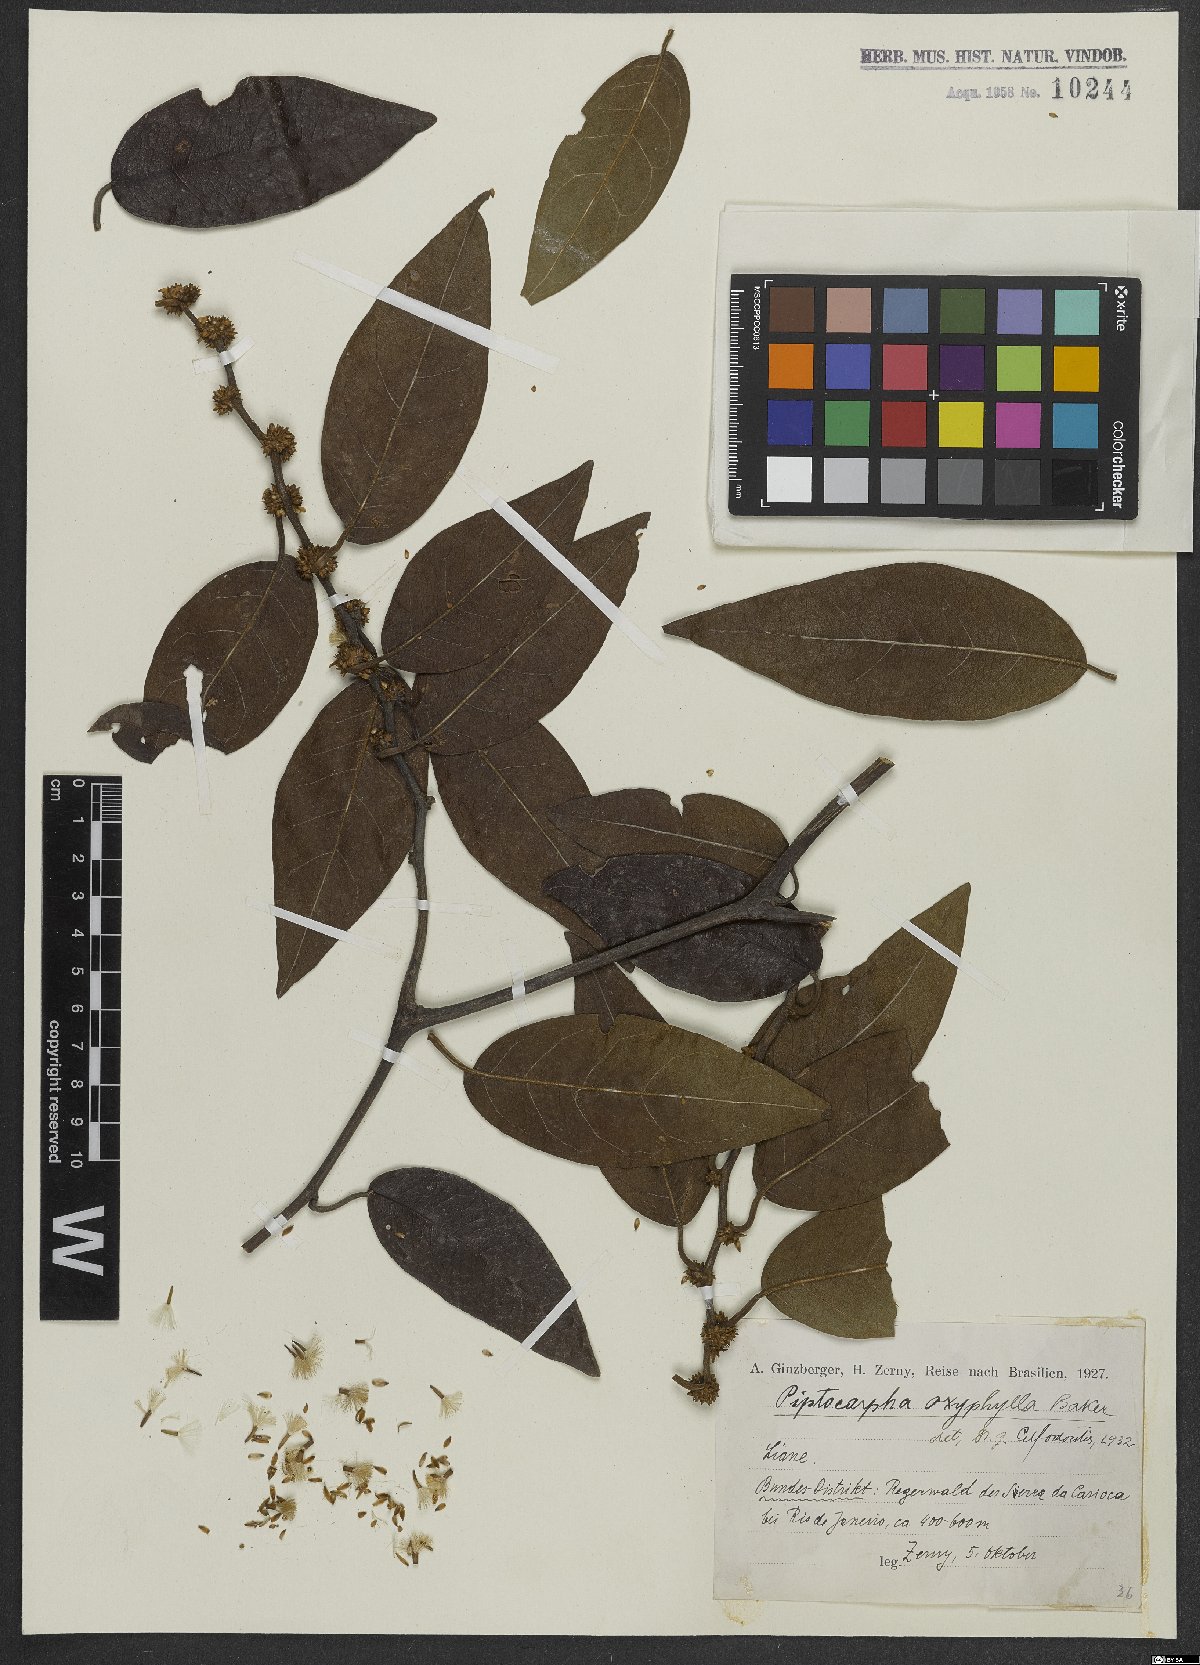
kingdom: Plantae
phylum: Tracheophyta
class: Magnoliopsida
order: Asterales
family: Asteraceae
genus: Piptocarpha
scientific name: Piptocarpha verticillata
